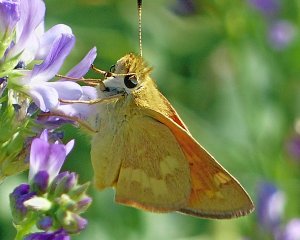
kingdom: Animalia
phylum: Arthropoda
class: Insecta
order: Lepidoptera
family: Hesperiidae
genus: Ochlodes
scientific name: Ochlodes sylvanoides
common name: Woodland Skipper
